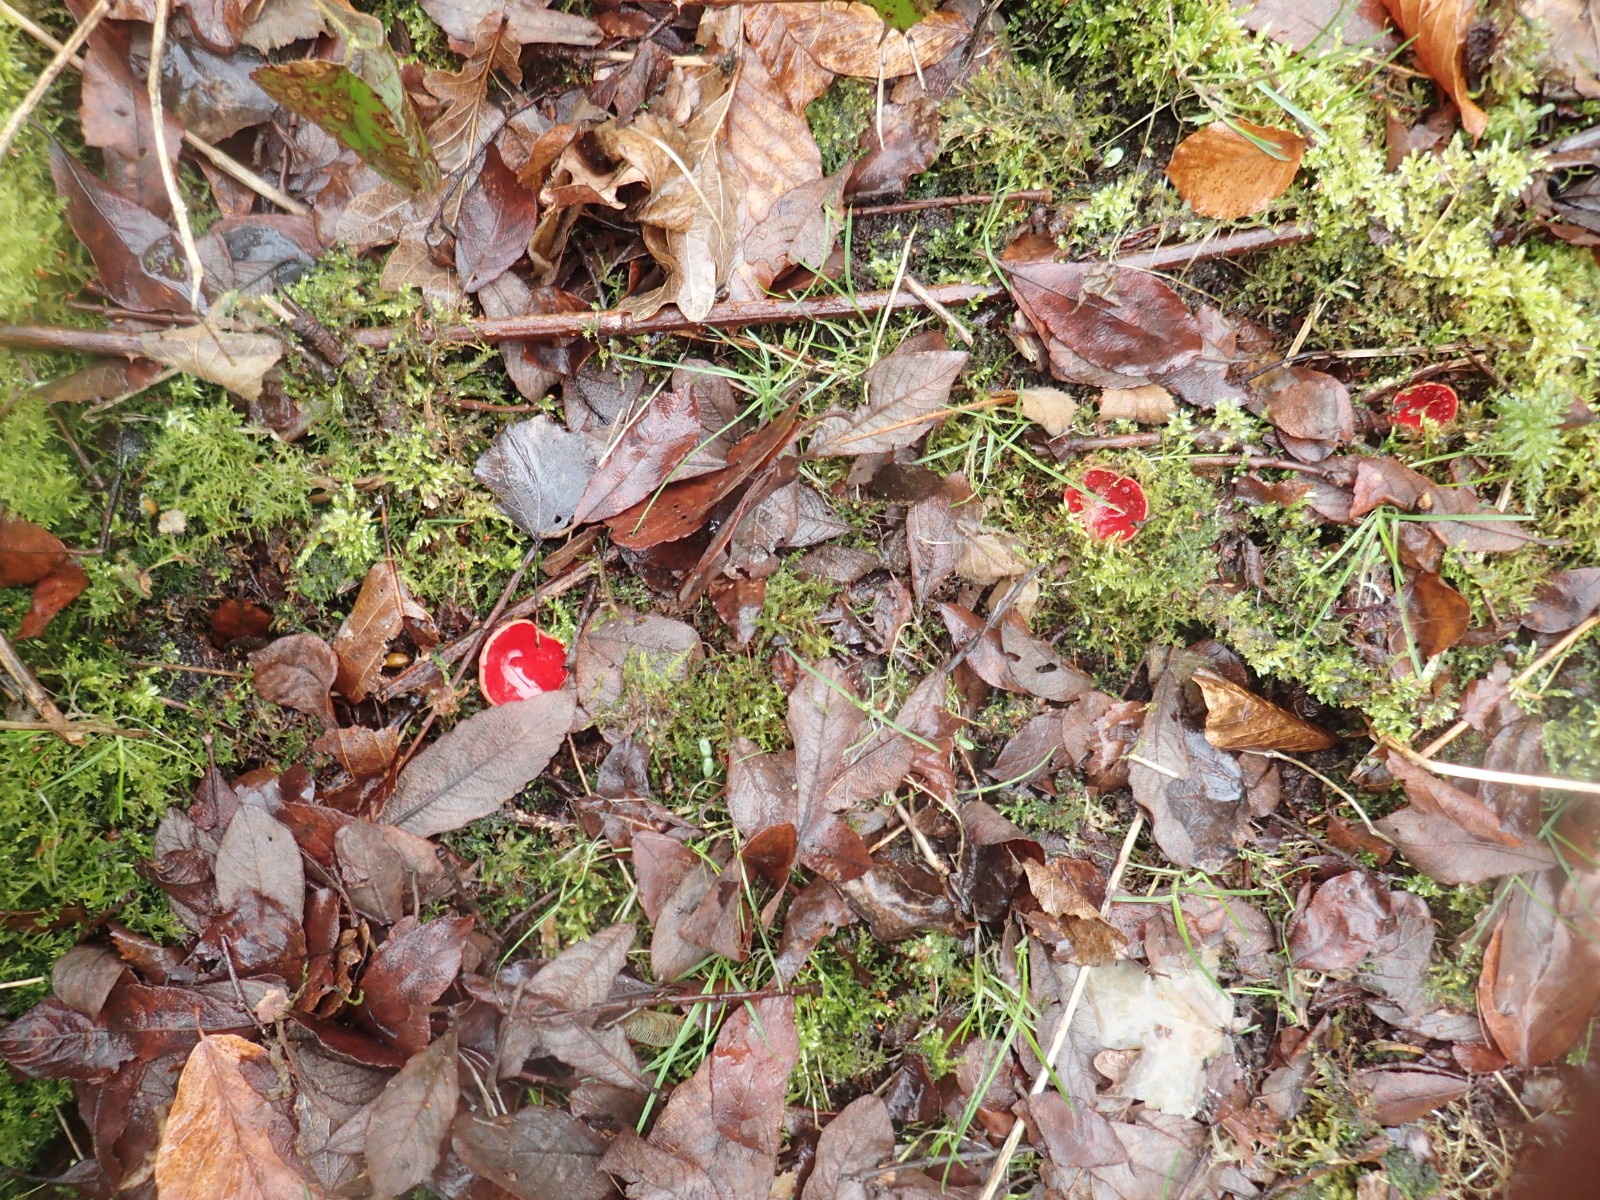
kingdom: Fungi
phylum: Ascomycota
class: Pezizomycetes
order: Pezizales
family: Sarcoscyphaceae
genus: Sarcoscypha
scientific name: Sarcoscypha austriaca
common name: krølhåret pragtbæger
